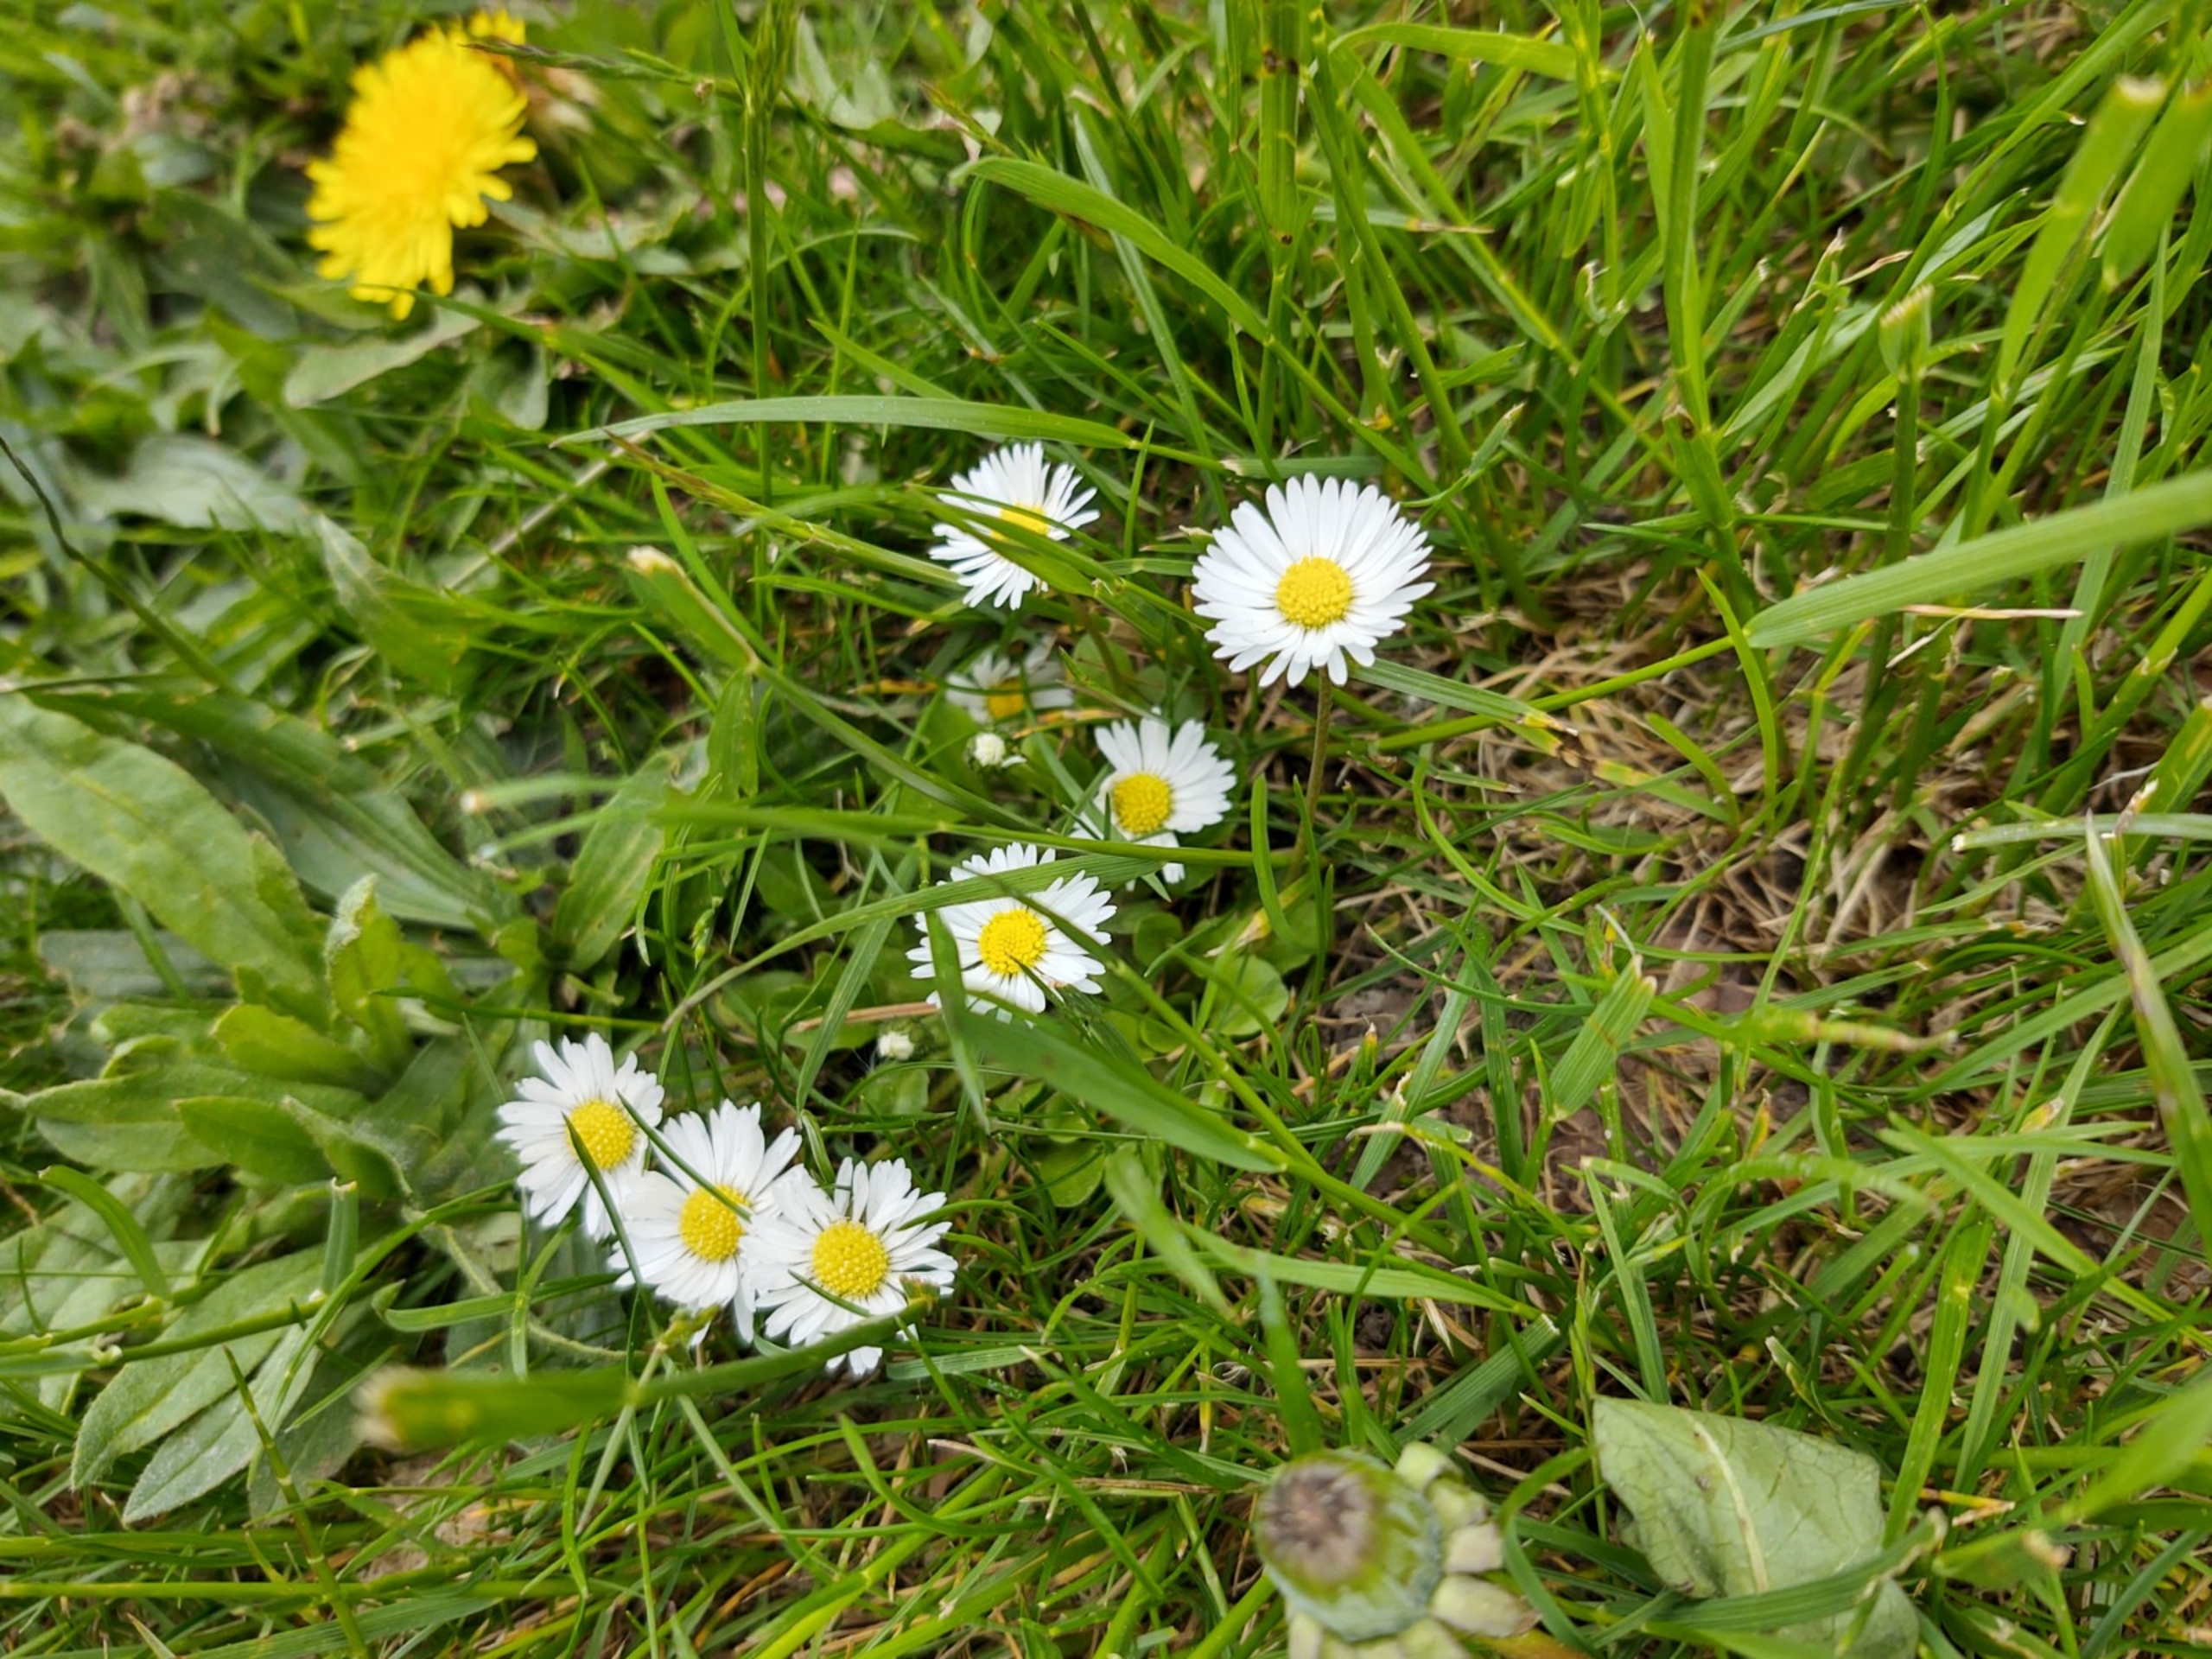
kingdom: Plantae
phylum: Tracheophyta
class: Magnoliopsida
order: Asterales
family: Asteraceae
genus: Bellis
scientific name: Bellis perennis
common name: Tusindfryd
